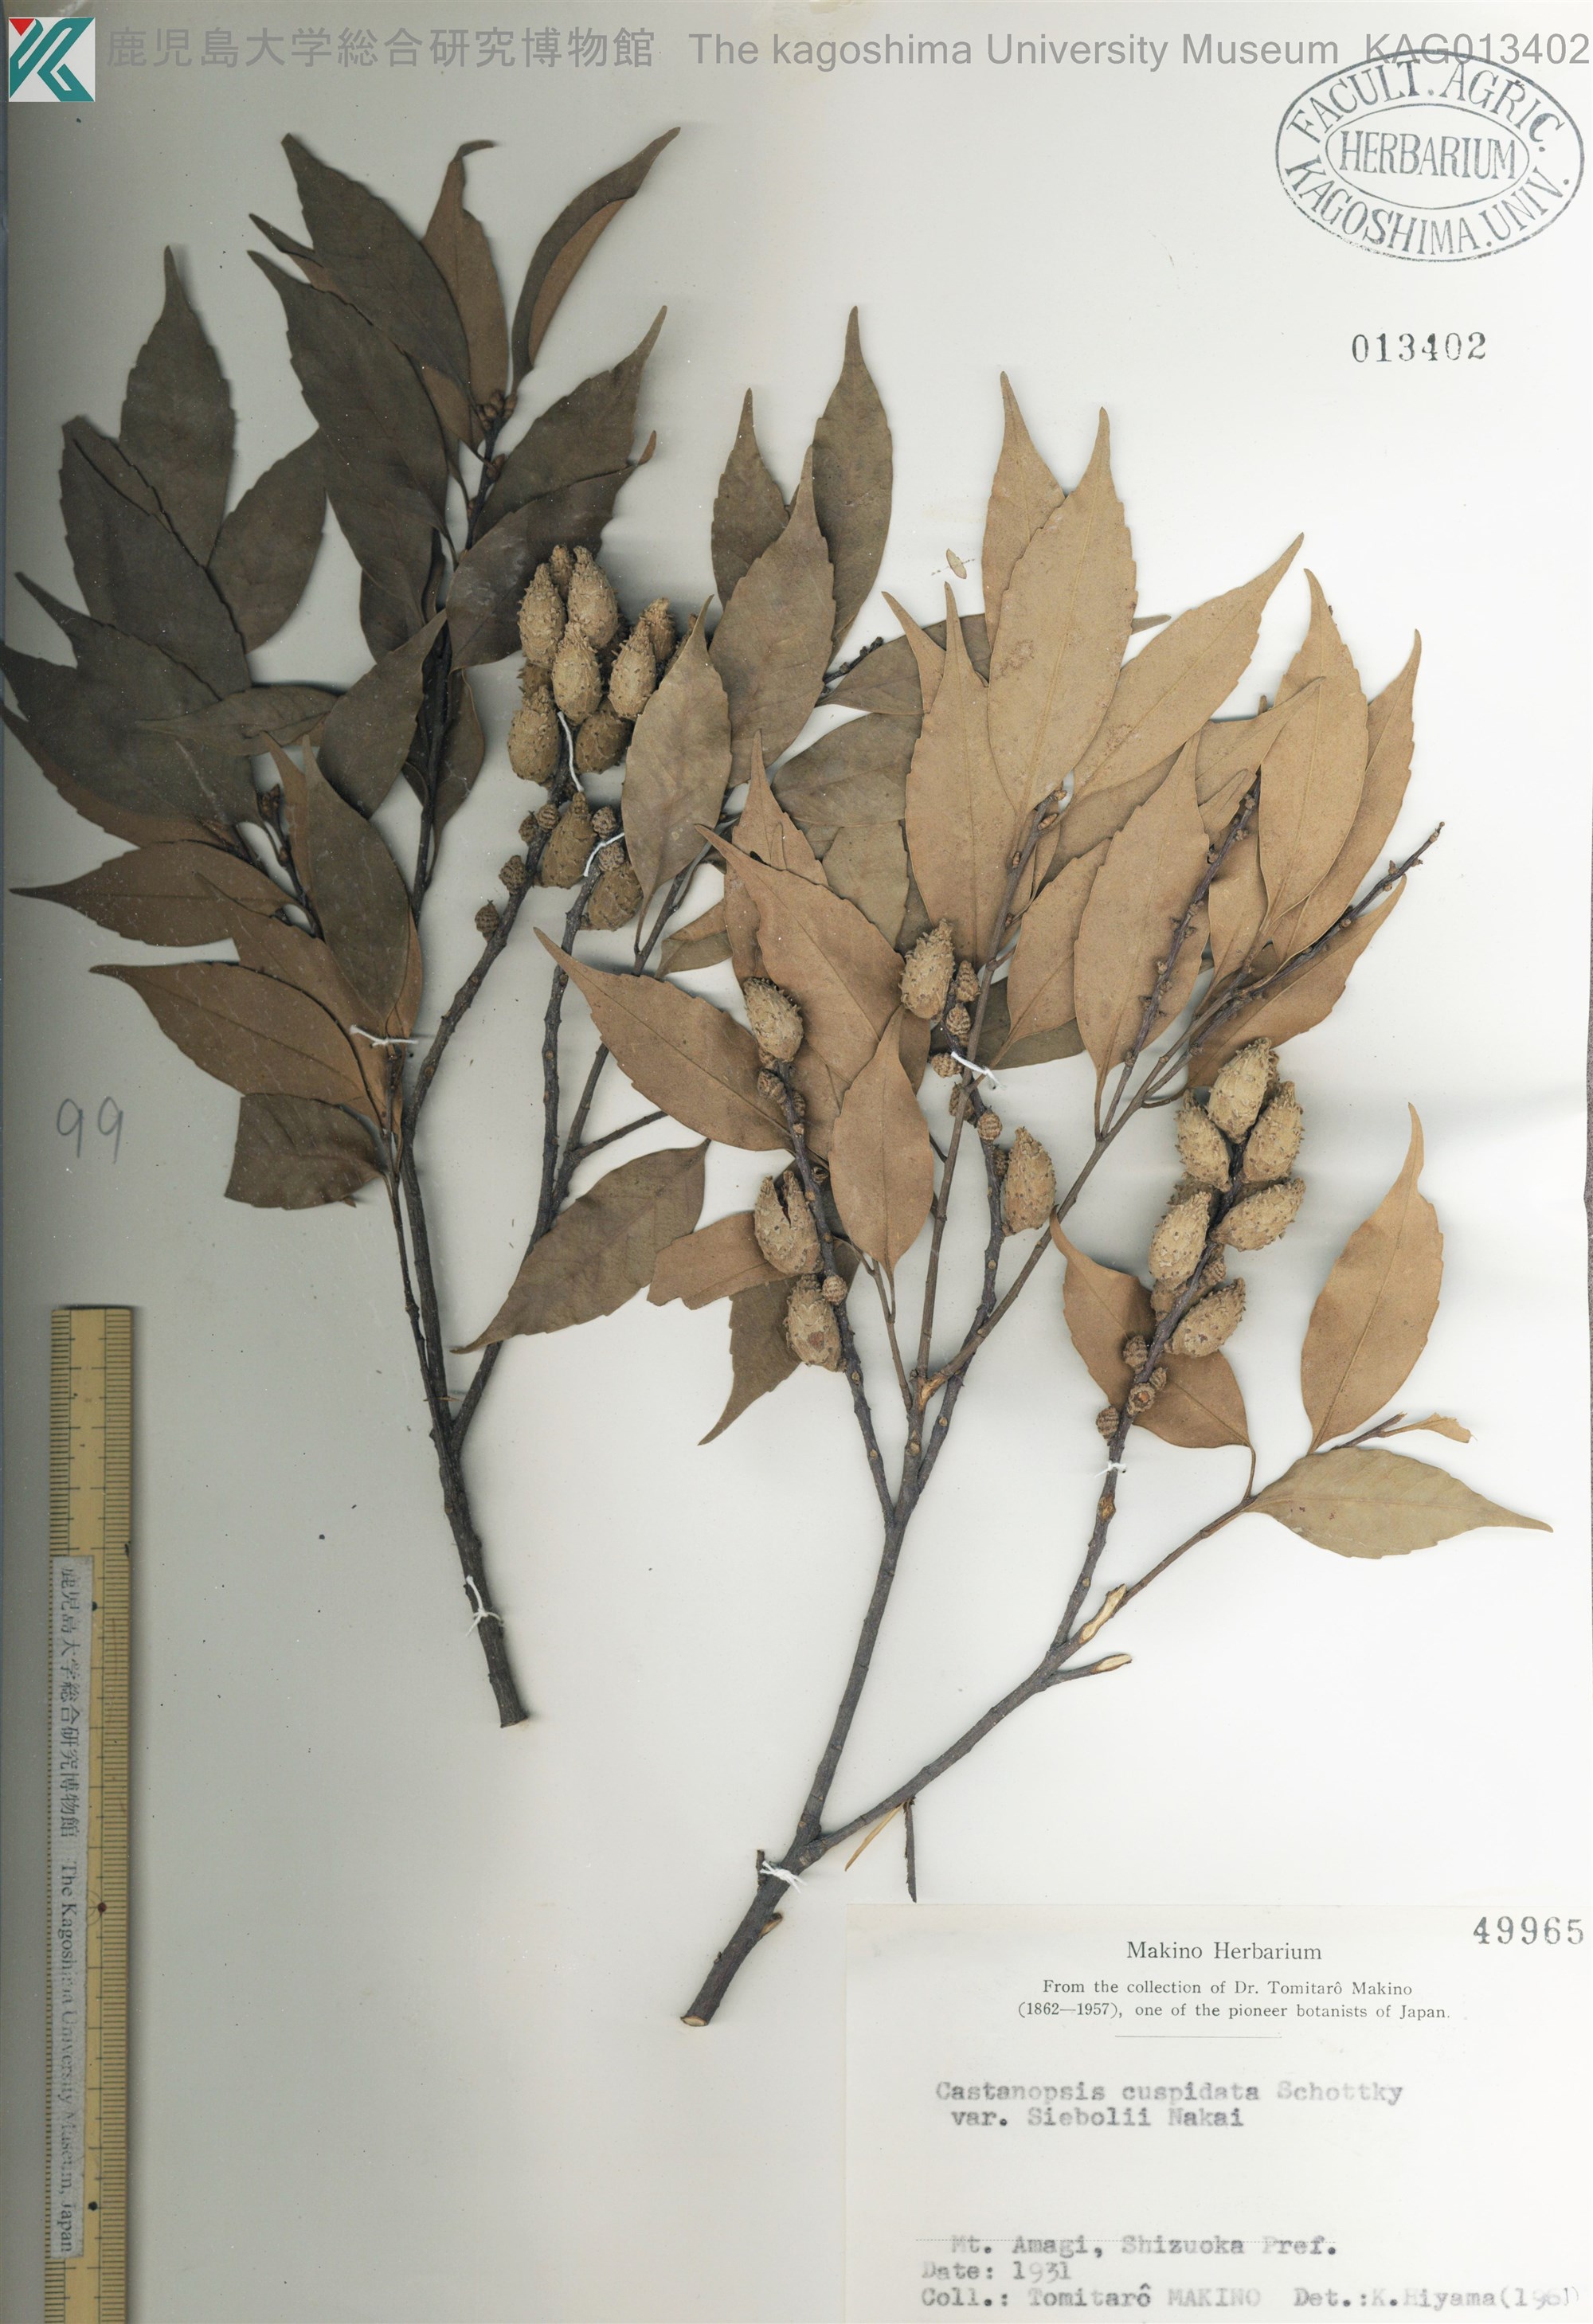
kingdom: Plantae
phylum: Tracheophyta
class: Magnoliopsida
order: Fagales
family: Fagaceae
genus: Castanopsis
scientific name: Castanopsis sieboldii
